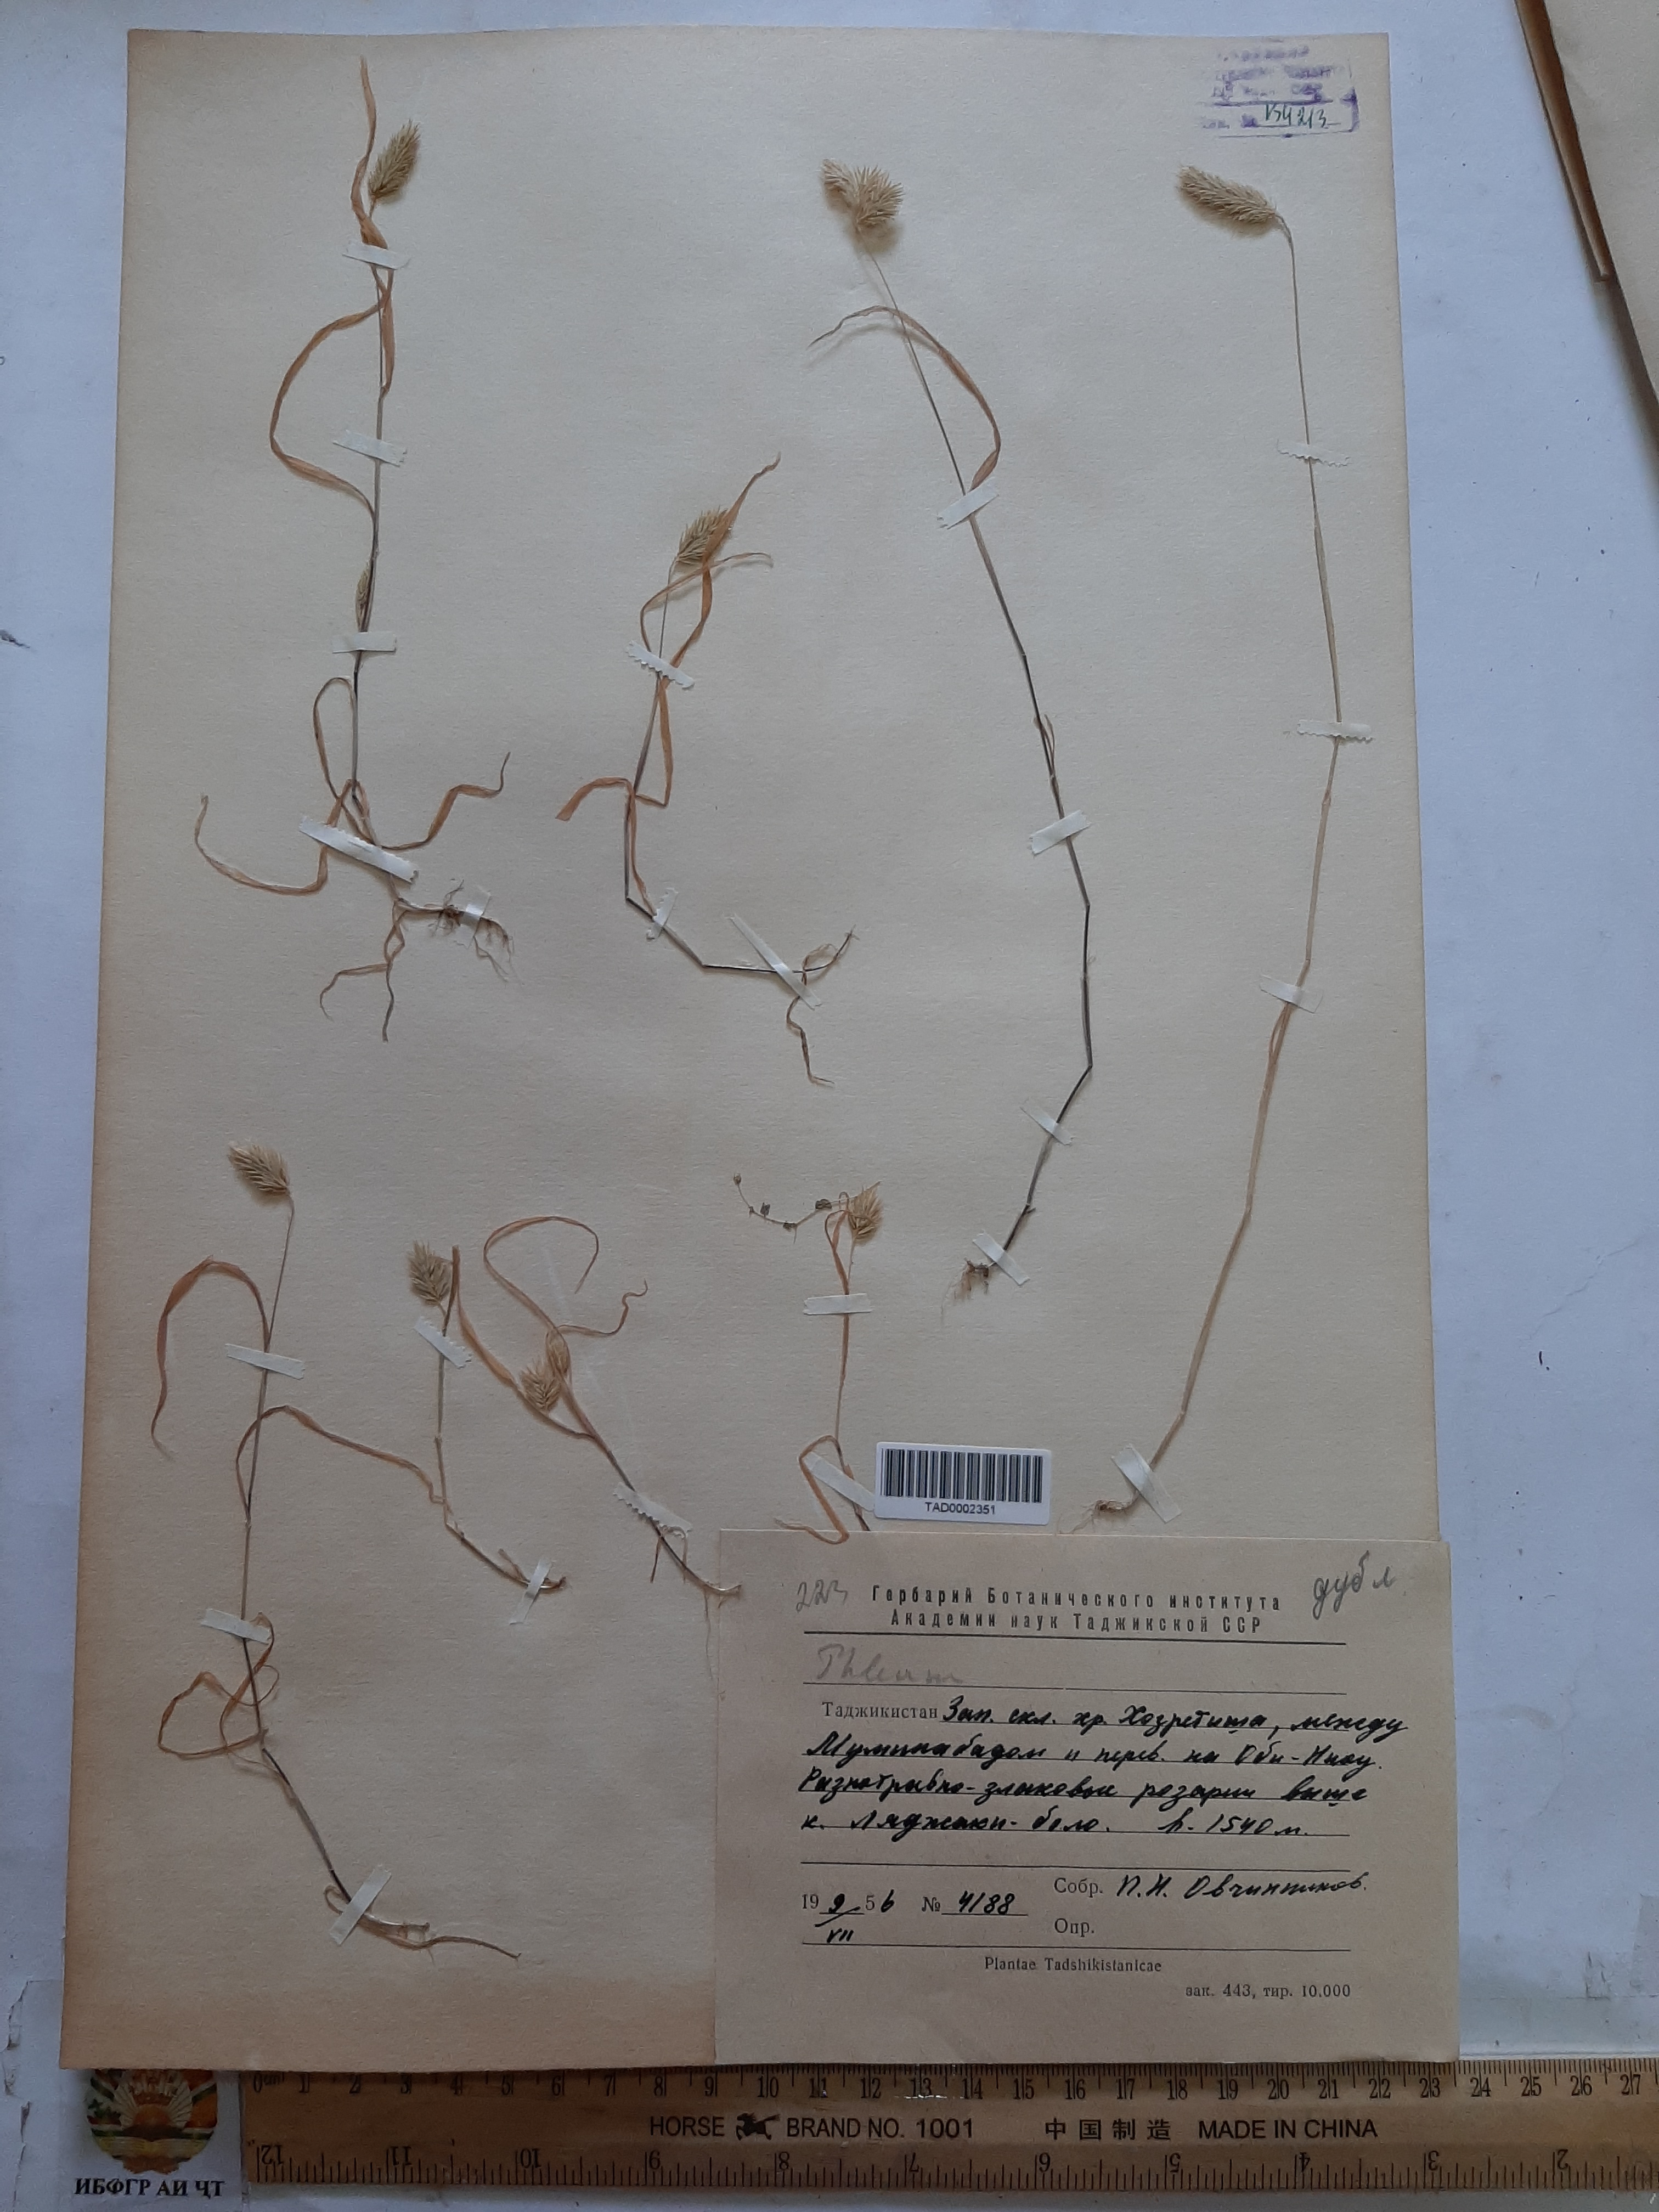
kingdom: Plantae
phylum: Tracheophyta
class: Liliopsida
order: Poales
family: Poaceae
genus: Phleum
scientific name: Phleum exaratum
